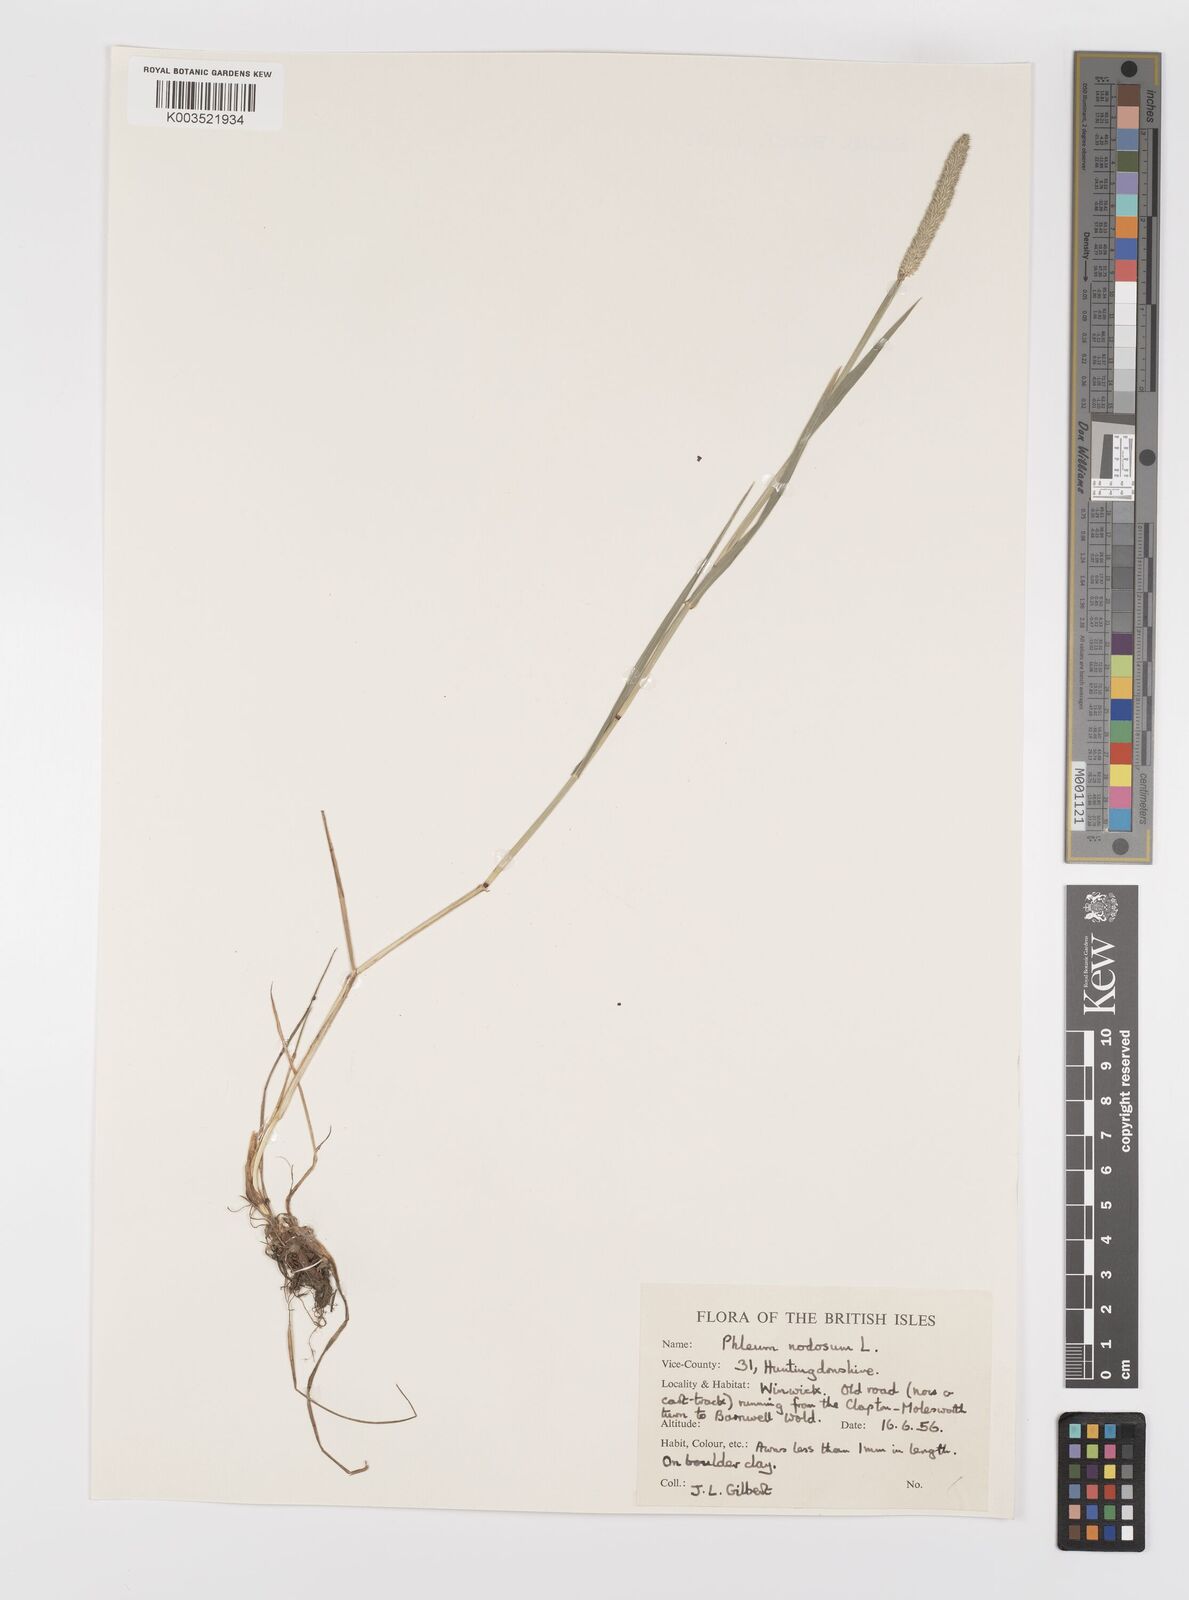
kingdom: Plantae
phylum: Tracheophyta
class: Liliopsida
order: Poales
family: Poaceae
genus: Phleum
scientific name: Phleum bertolonii
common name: Smaller cat's-tail
